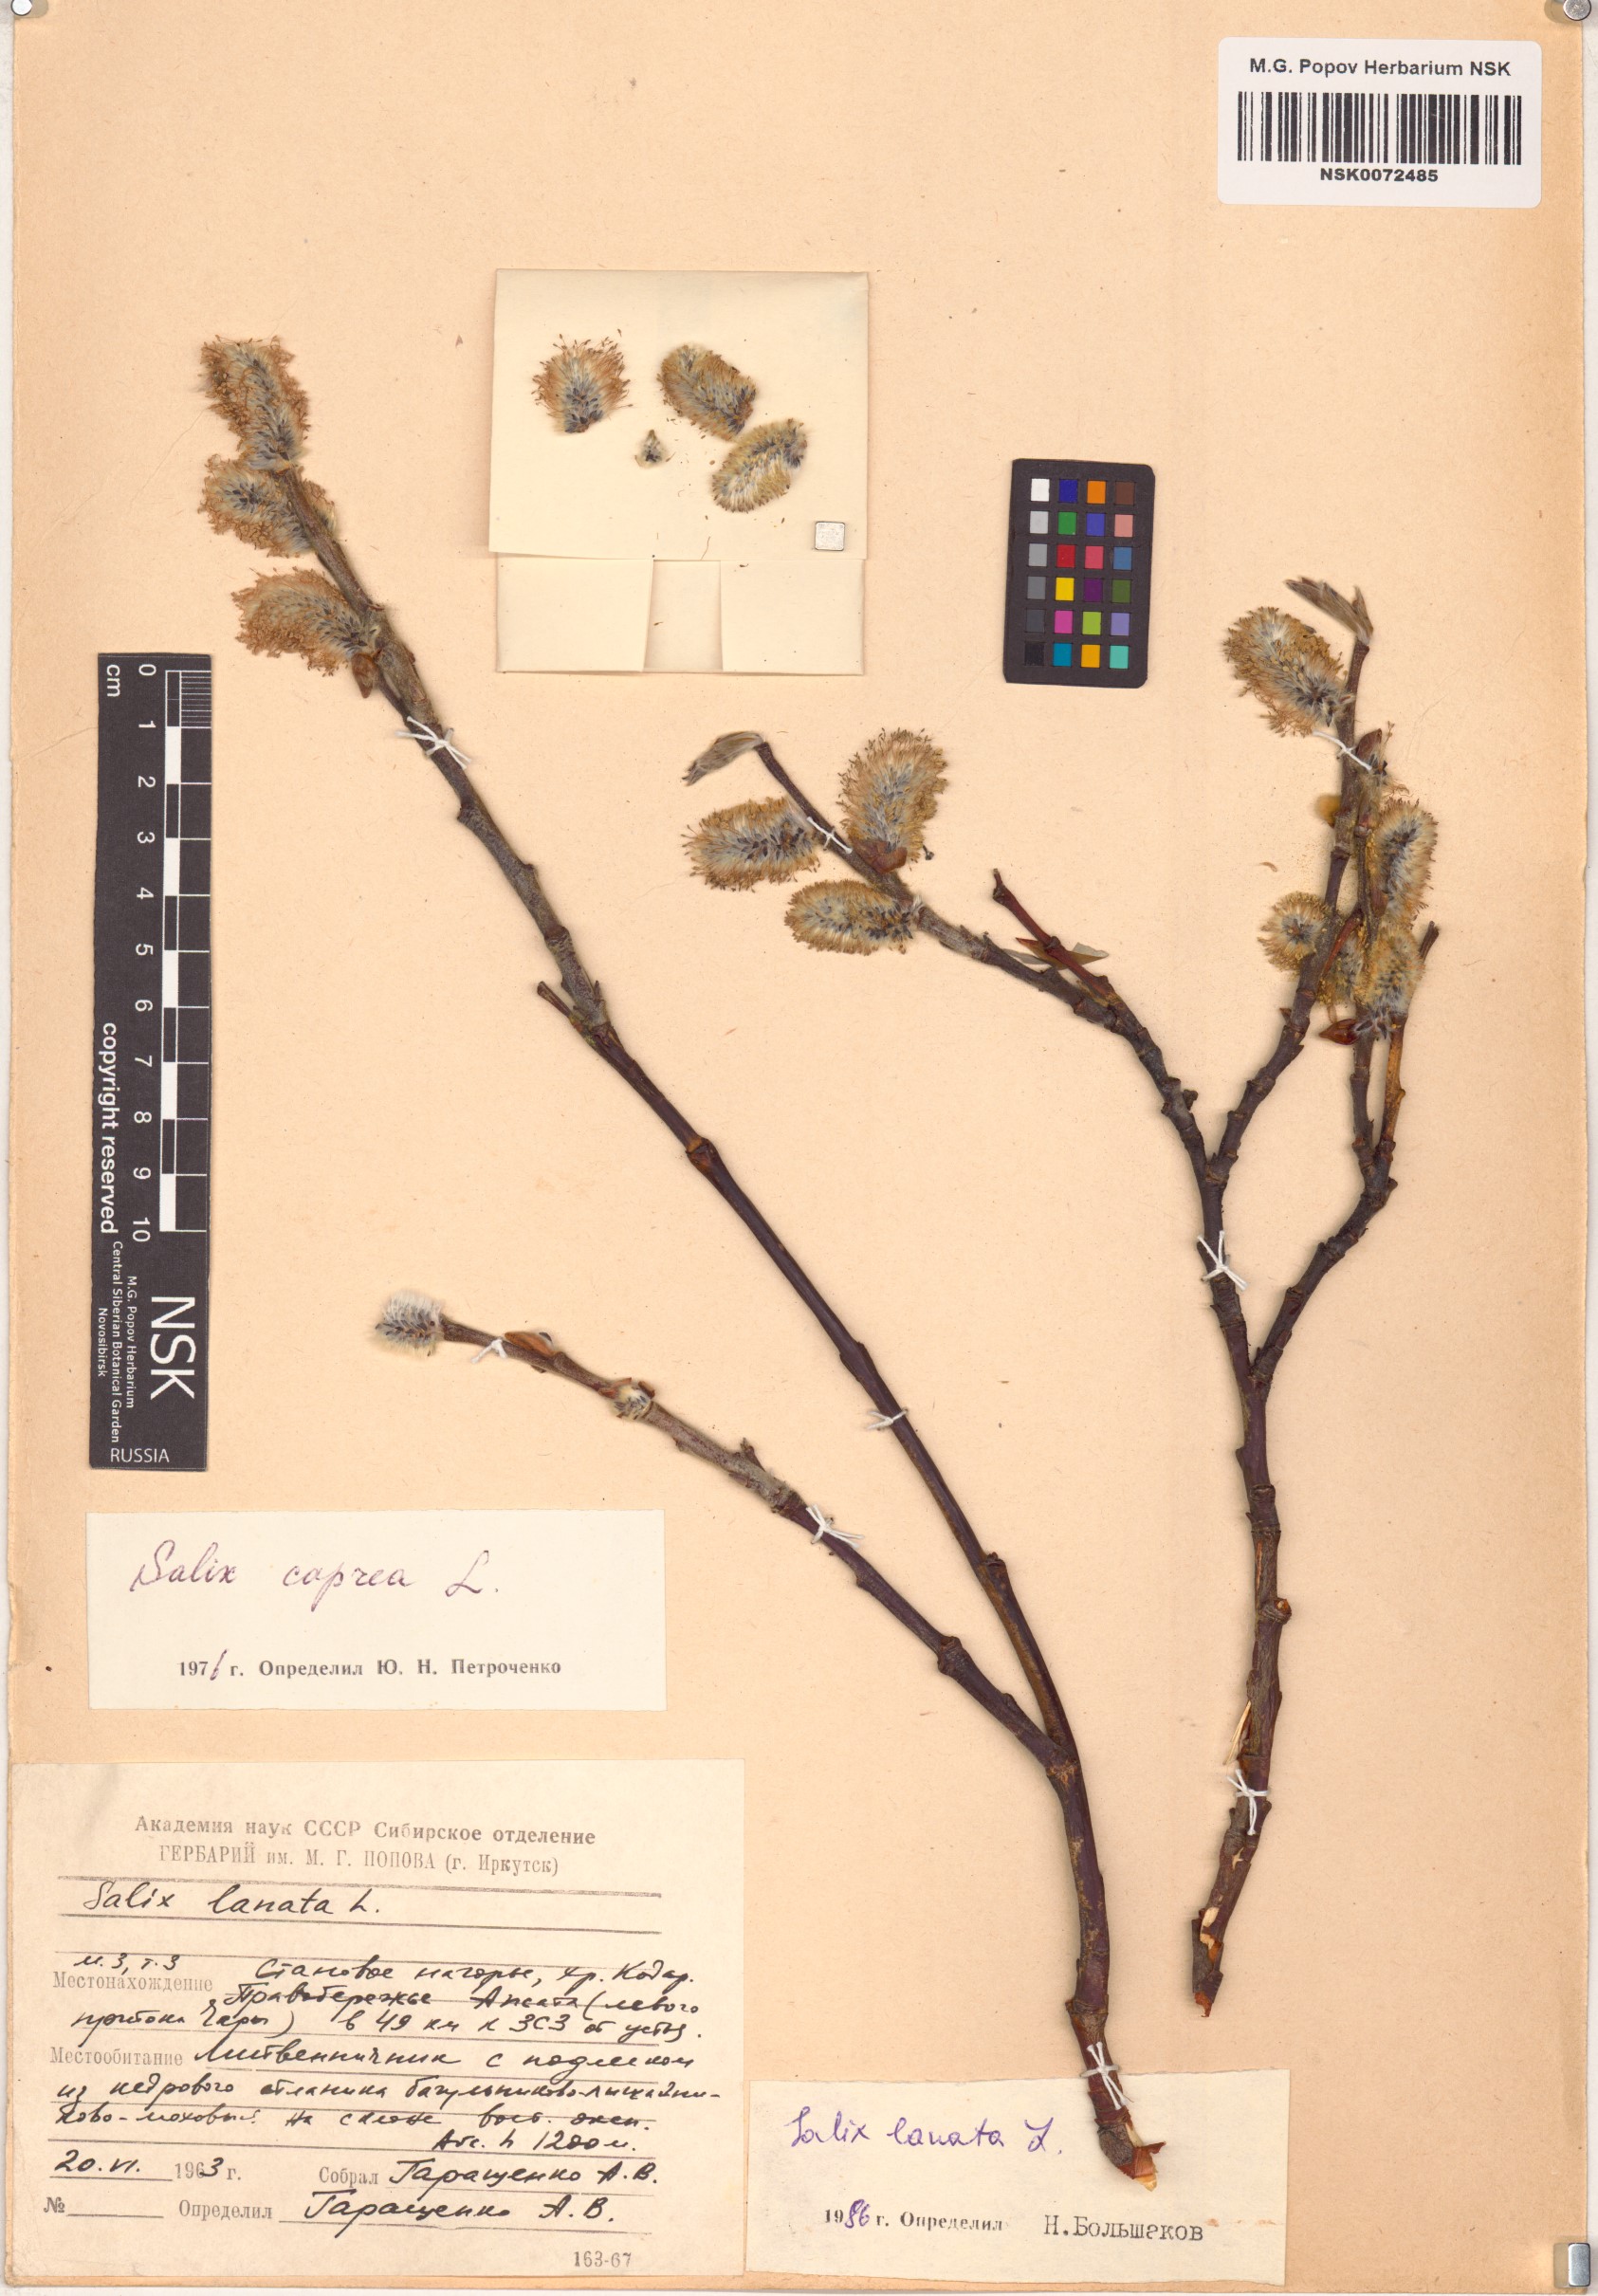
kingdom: Plantae
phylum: Tracheophyta
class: Magnoliopsida
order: Malpighiales
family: Salicaceae
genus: Salix
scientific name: Salix lanata
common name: Woolly willow
